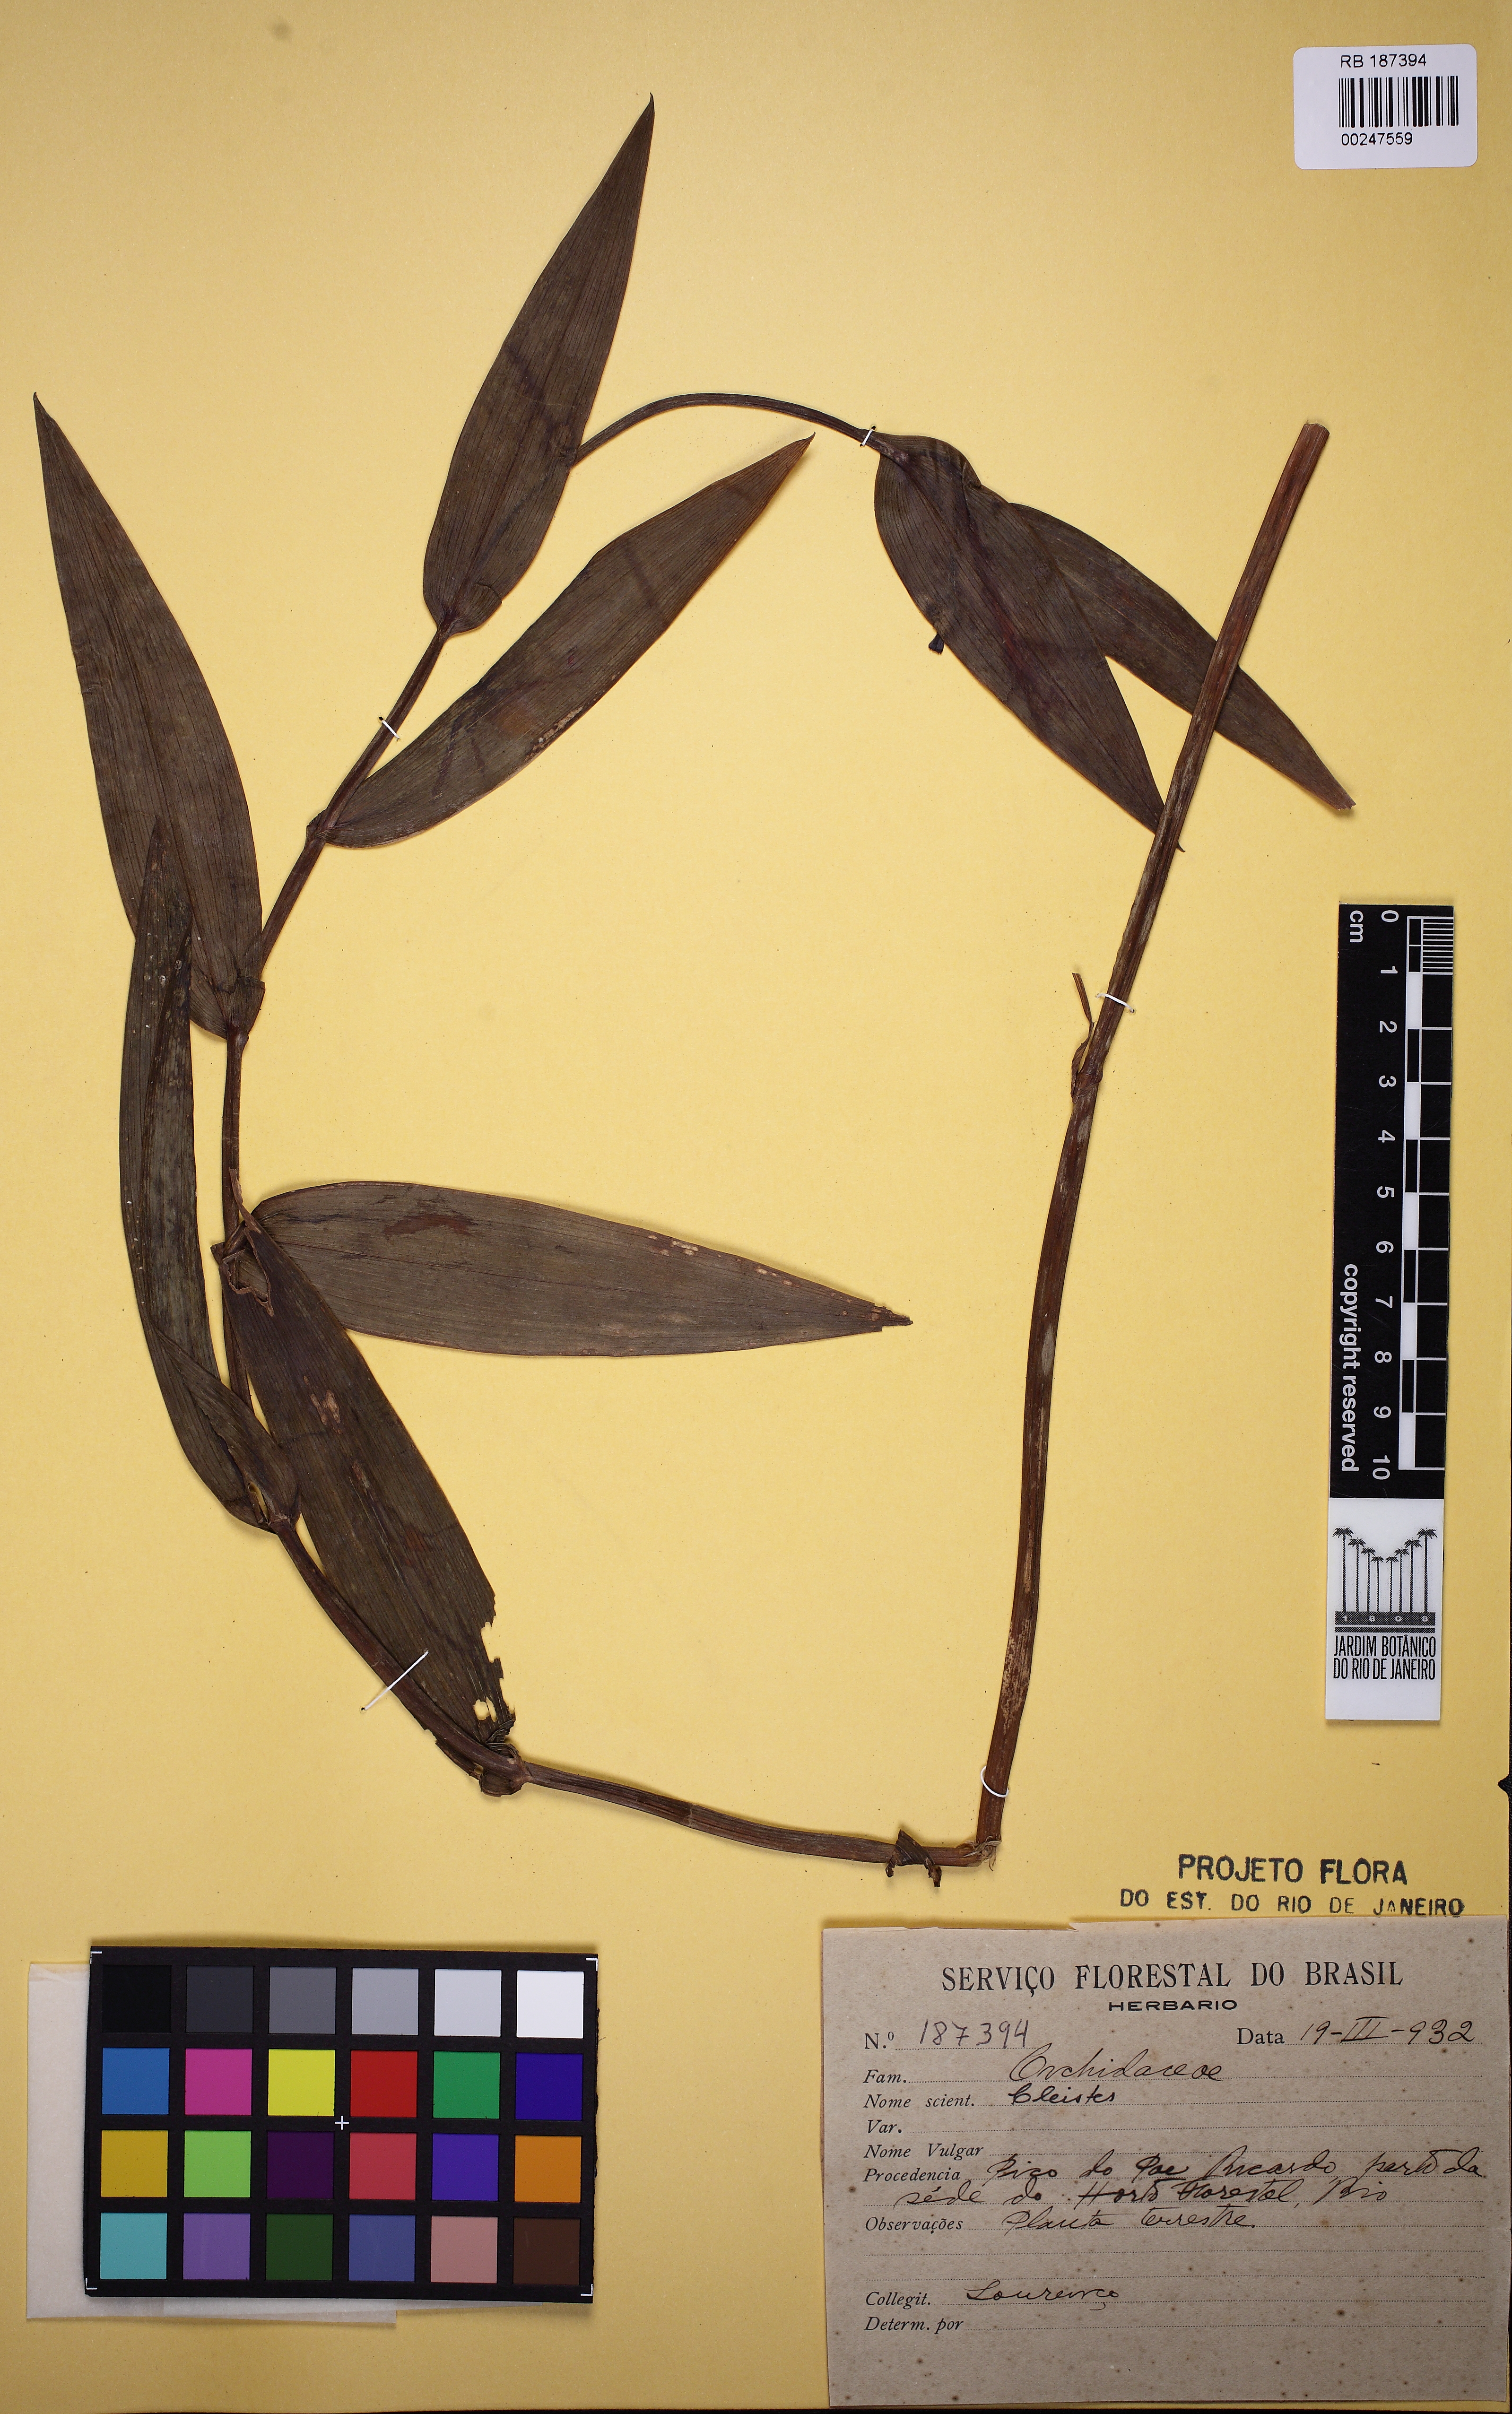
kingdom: Plantae
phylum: Tracheophyta
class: Liliopsida
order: Asparagales
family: Orchidaceae
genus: Cleistes
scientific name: Cleistes libonii
